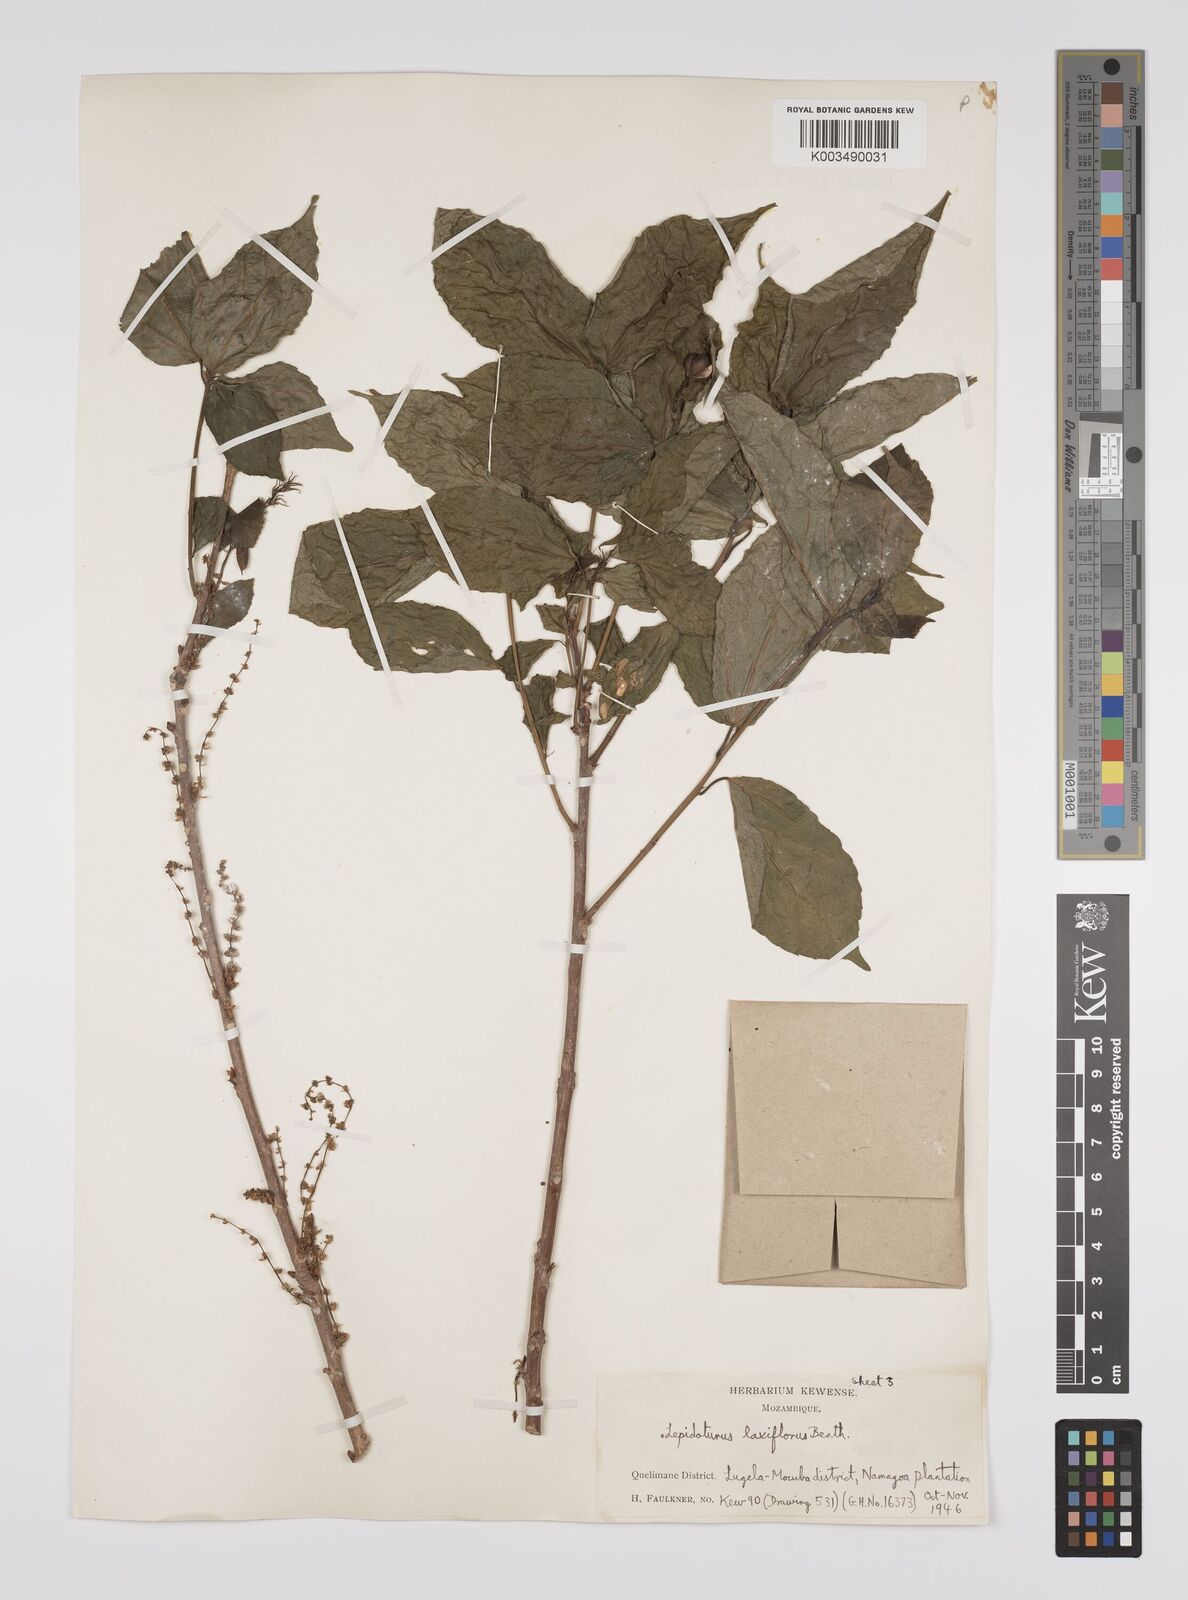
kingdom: Plantae
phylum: Tracheophyta
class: Magnoliopsida
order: Malpighiales
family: Euphorbiaceae
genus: Alchornea
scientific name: Alchornea laxiflora
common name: Lowveld bead-string
